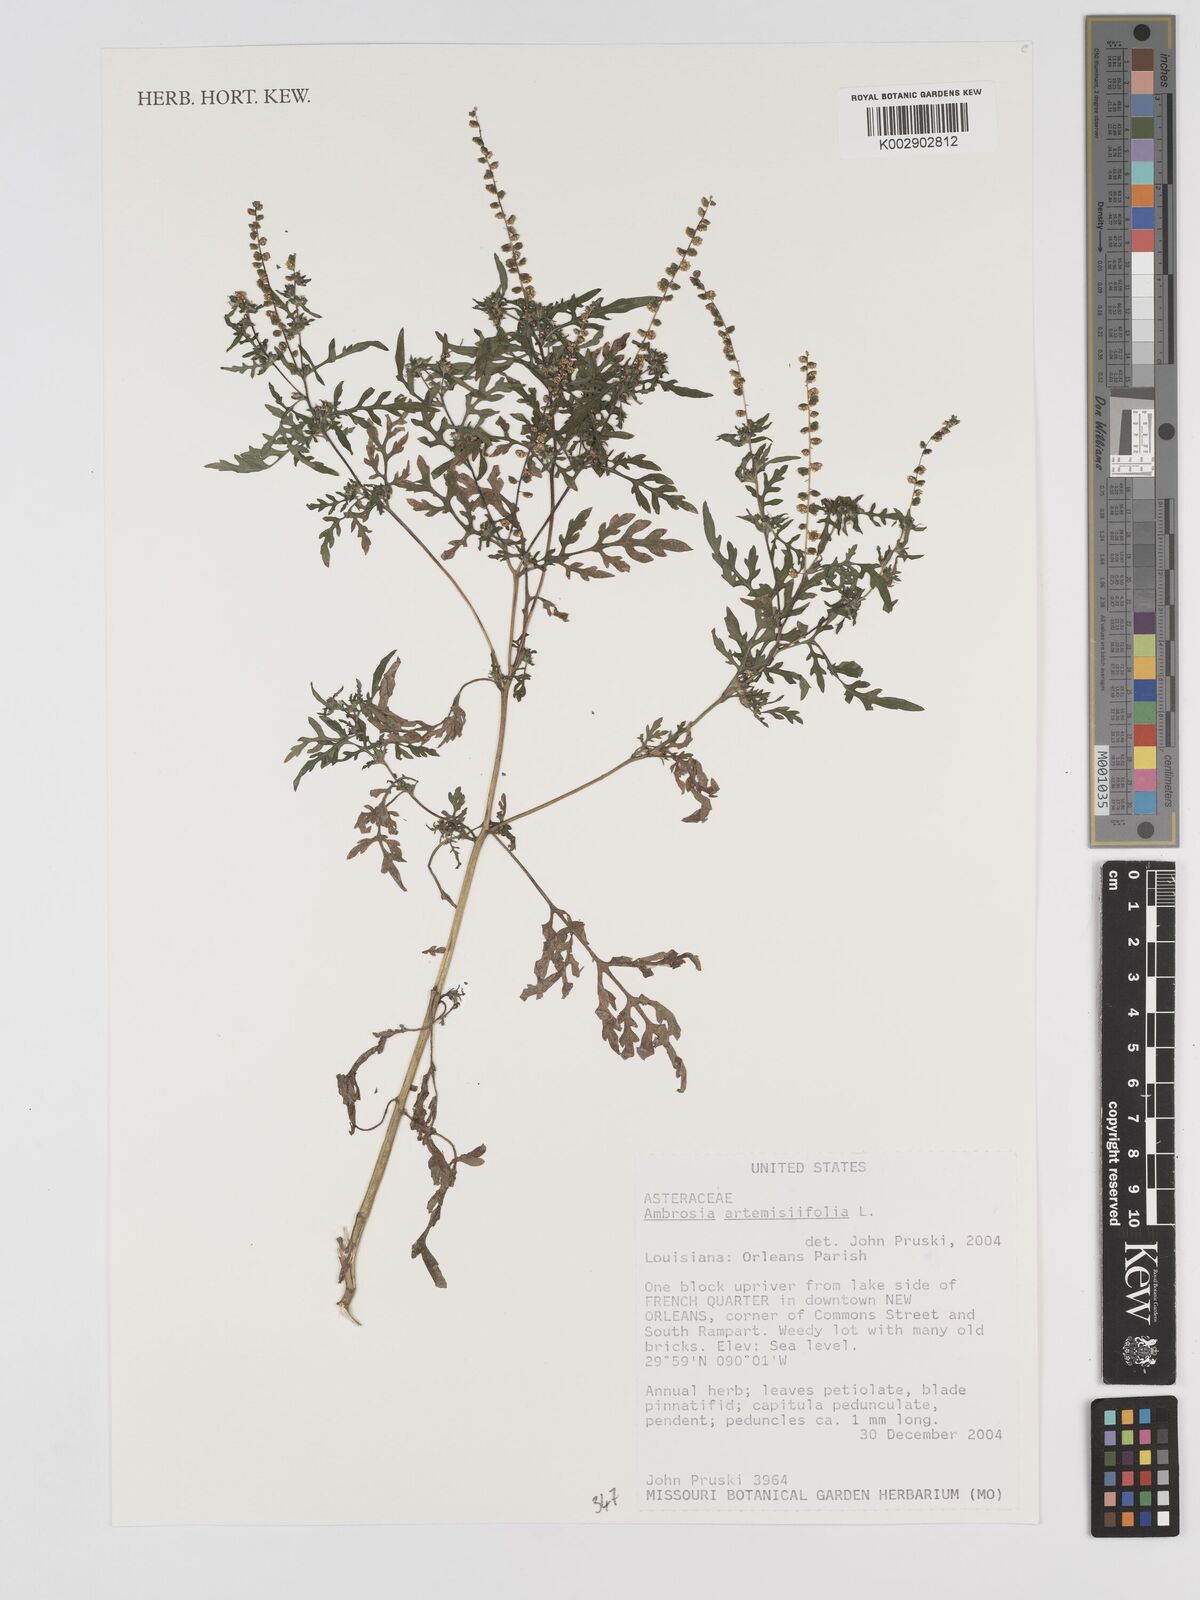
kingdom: Plantae
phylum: Tracheophyta
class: Magnoliopsida
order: Asterales
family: Asteraceae
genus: Ambrosia
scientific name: Ambrosia artemisiifolia
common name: Annual ragweed
